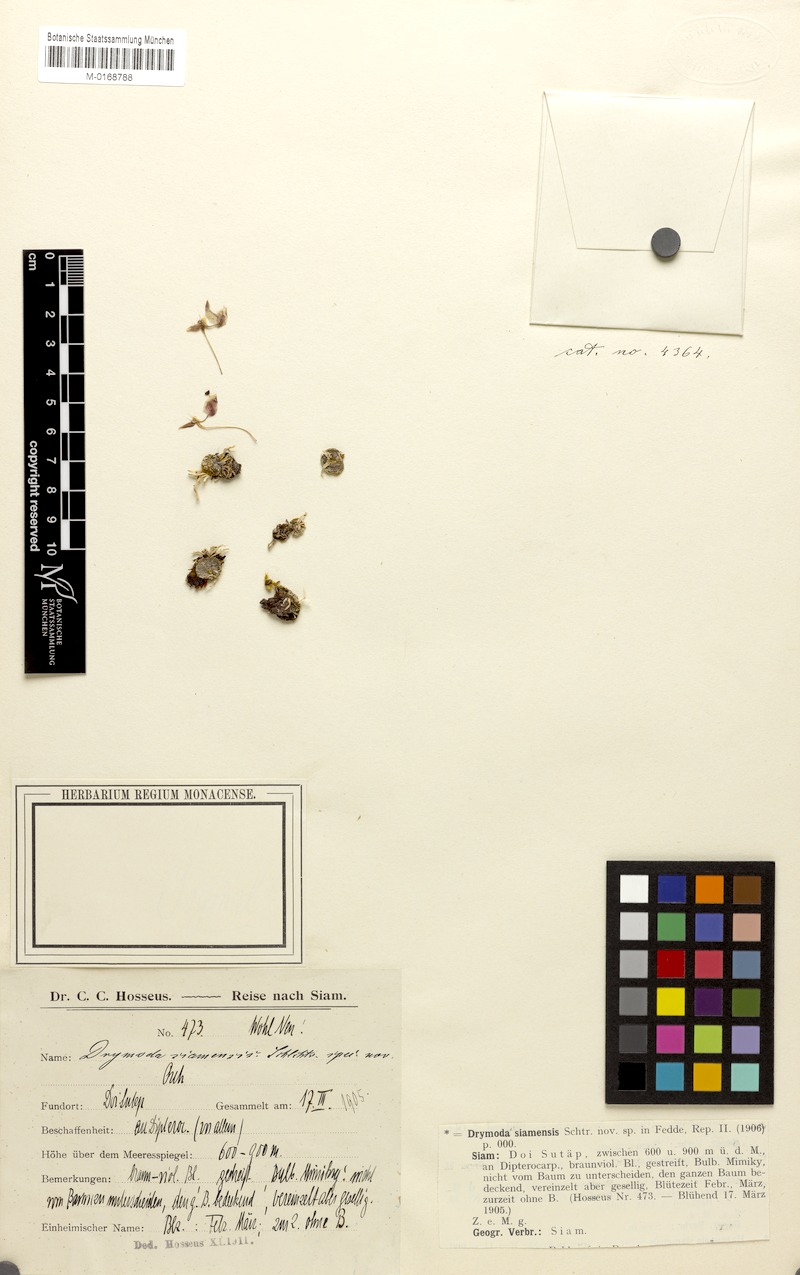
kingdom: Plantae
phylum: Tracheophyta
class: Liliopsida
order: Asparagales
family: Orchidaceae
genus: Bulbophyllum
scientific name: Bulbophyllum ayuthayense
